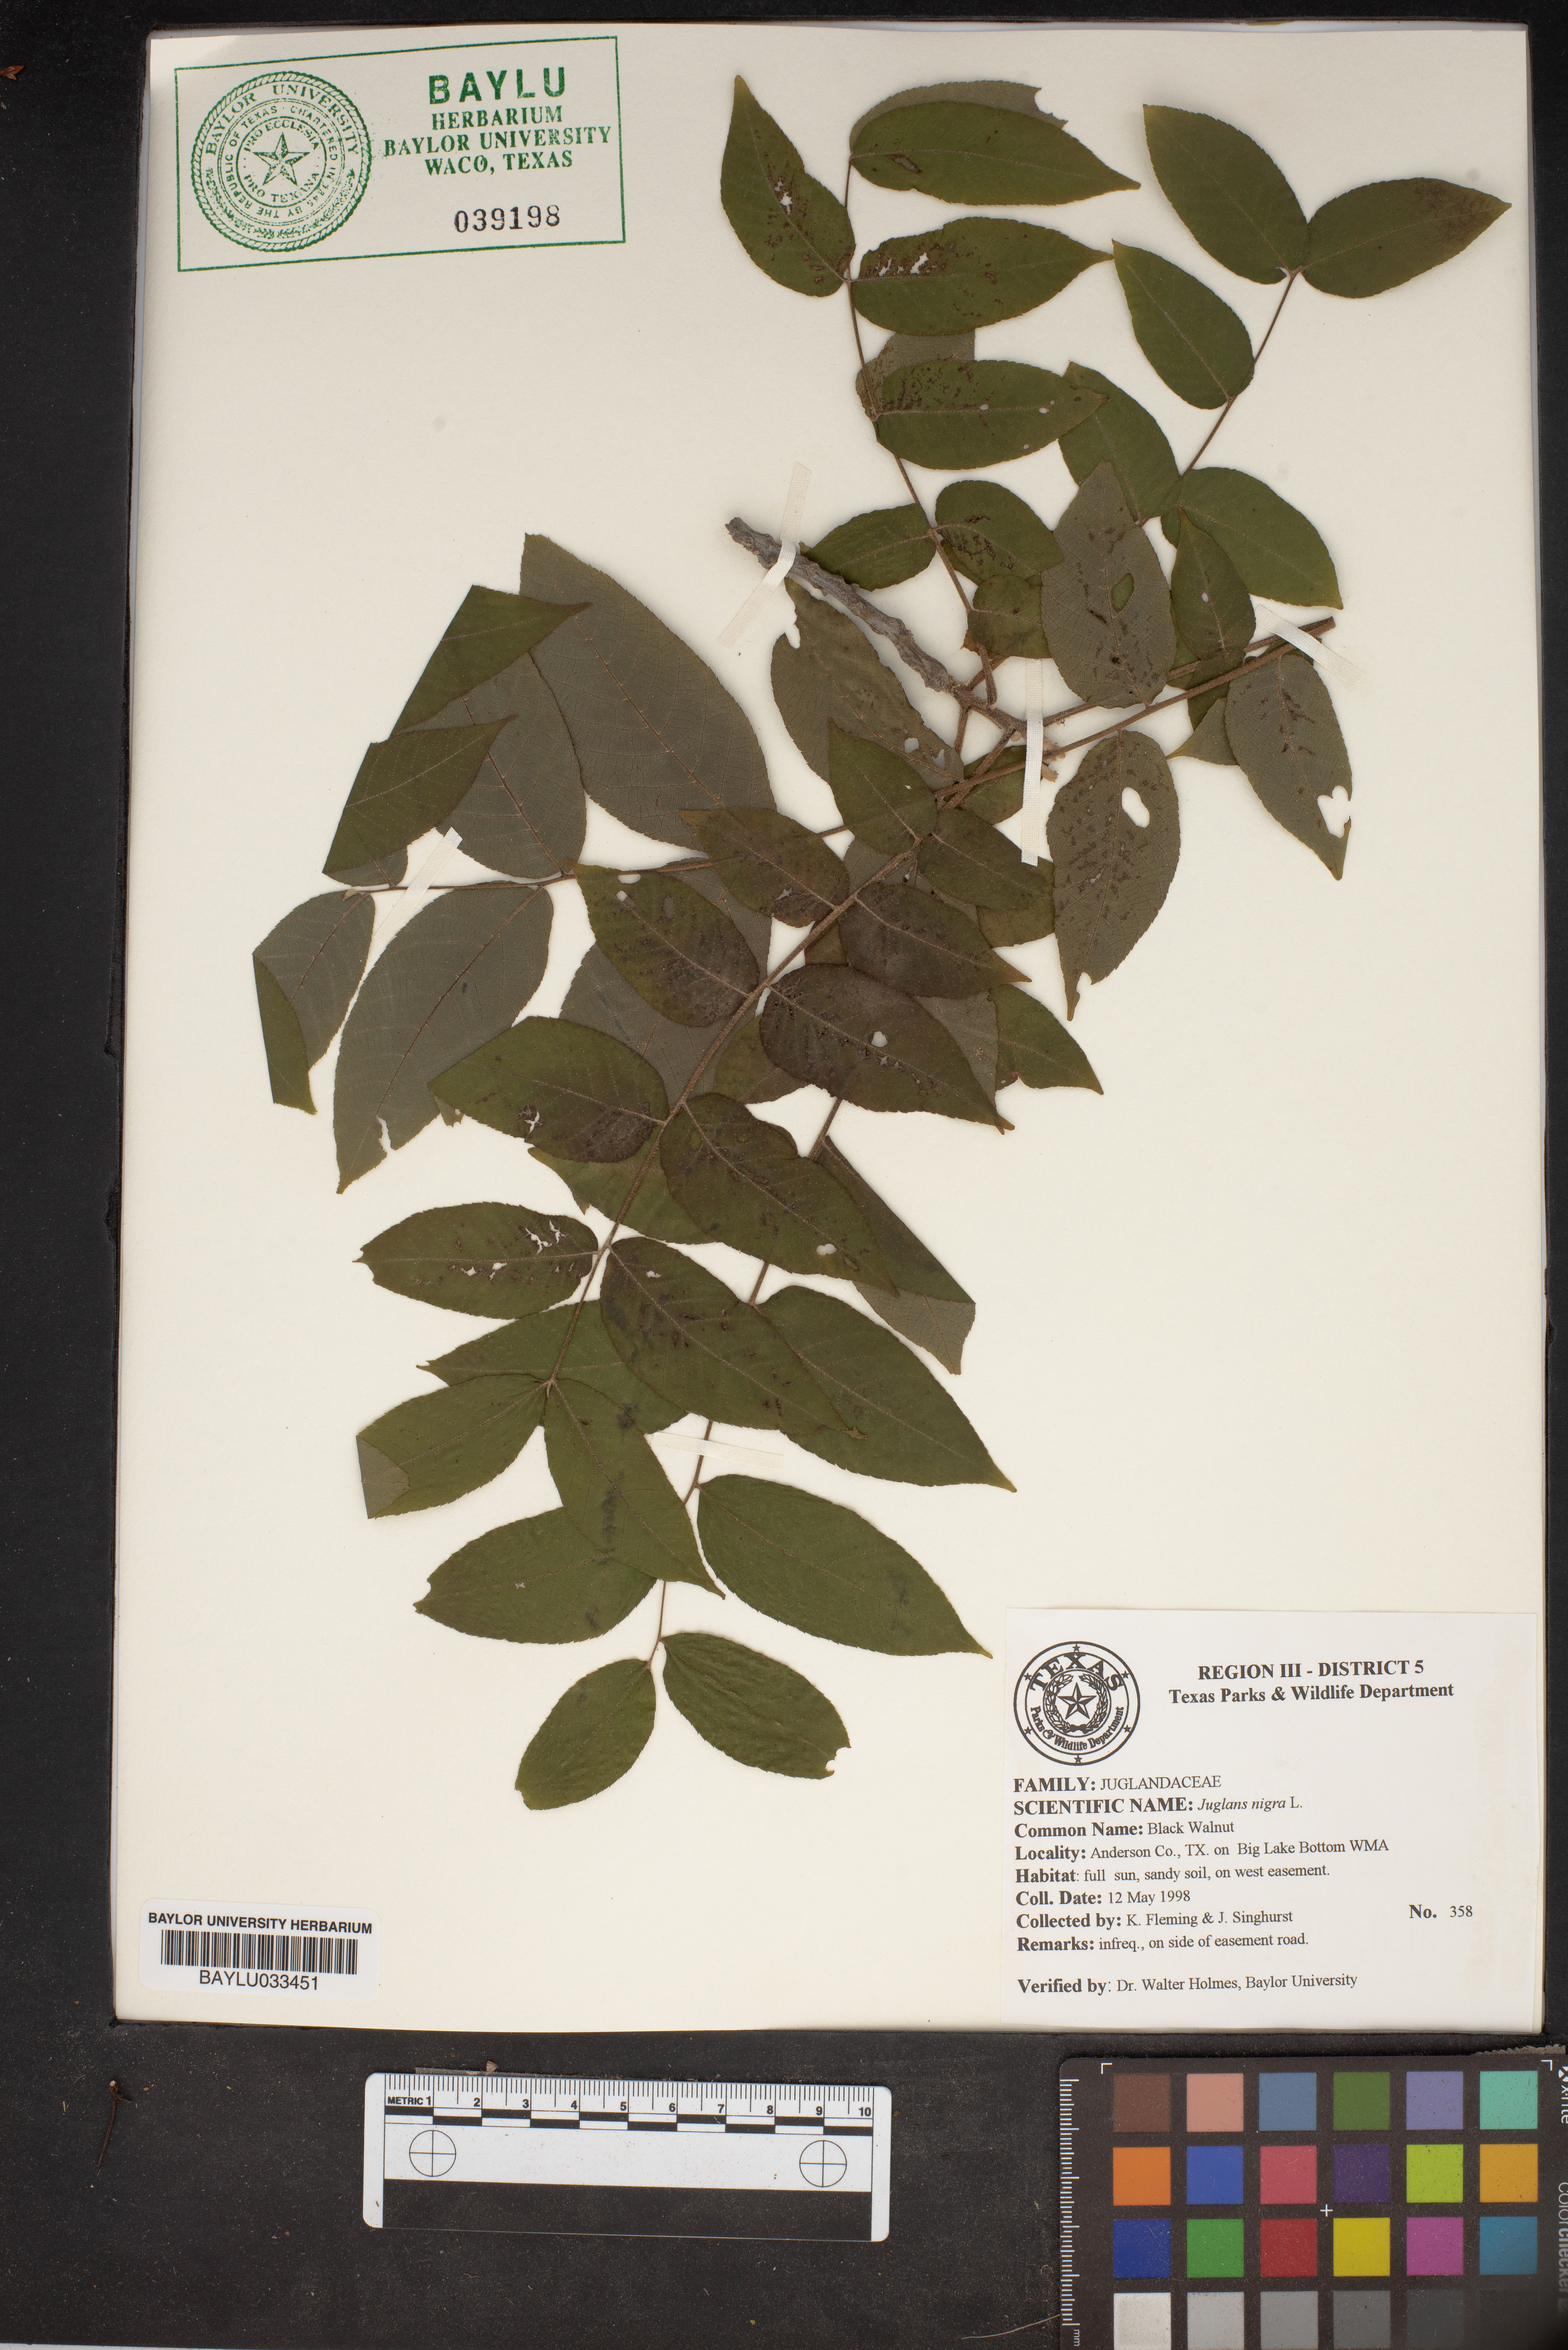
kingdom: Plantae
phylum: Tracheophyta
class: Magnoliopsida
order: Fagales
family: Juglandaceae
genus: Juglans
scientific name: Juglans nigra
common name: Black walnut
